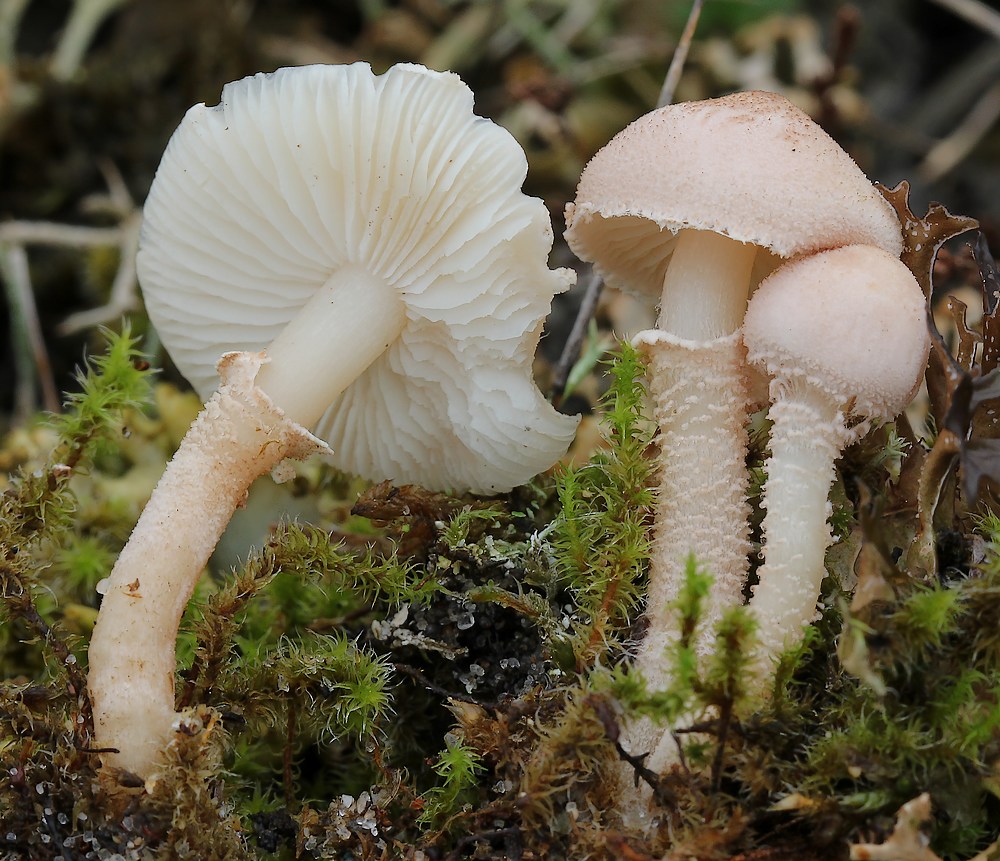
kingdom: Fungi
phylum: Basidiomycota
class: Agaricomycetes
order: Agaricales
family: Tricholomataceae
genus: Cystoderma
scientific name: Cystoderma carcharias
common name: rødgrå grynhat
